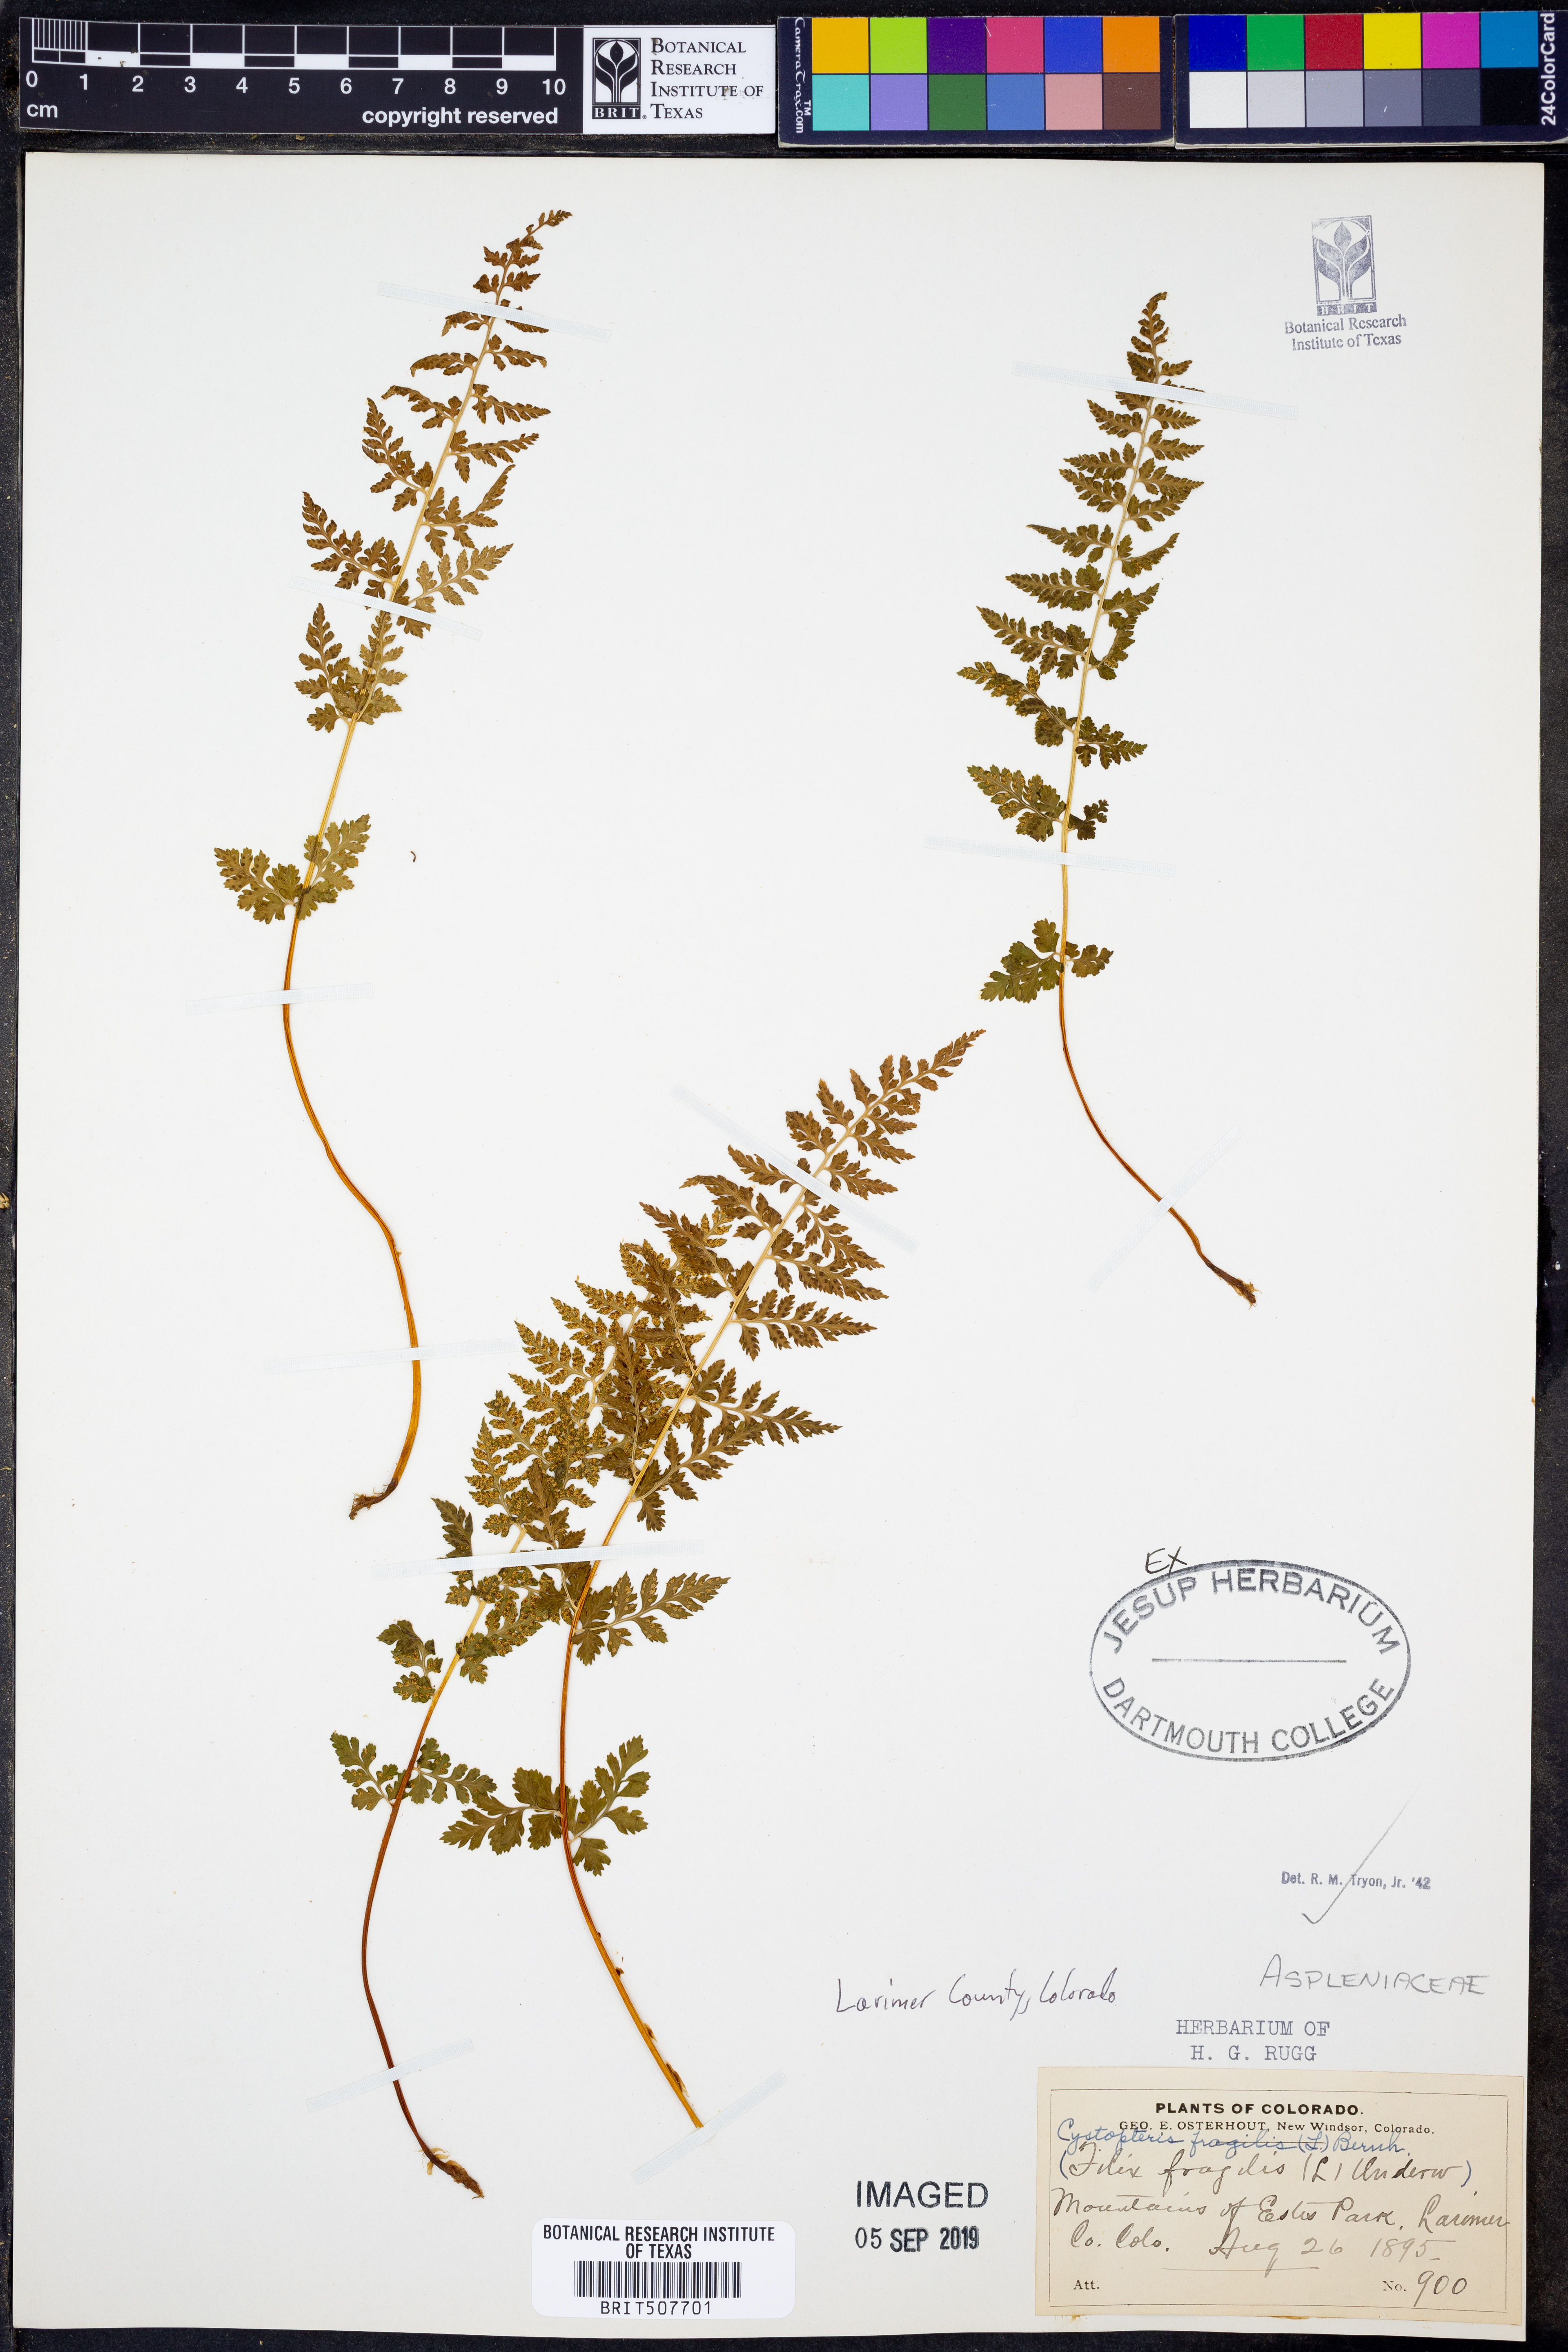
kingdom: Plantae
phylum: Tracheophyta
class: Polypodiopsida
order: Polypodiales
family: Cystopteridaceae
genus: Cystopteris
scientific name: Cystopteris fragilis
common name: Brittle bladder fern
